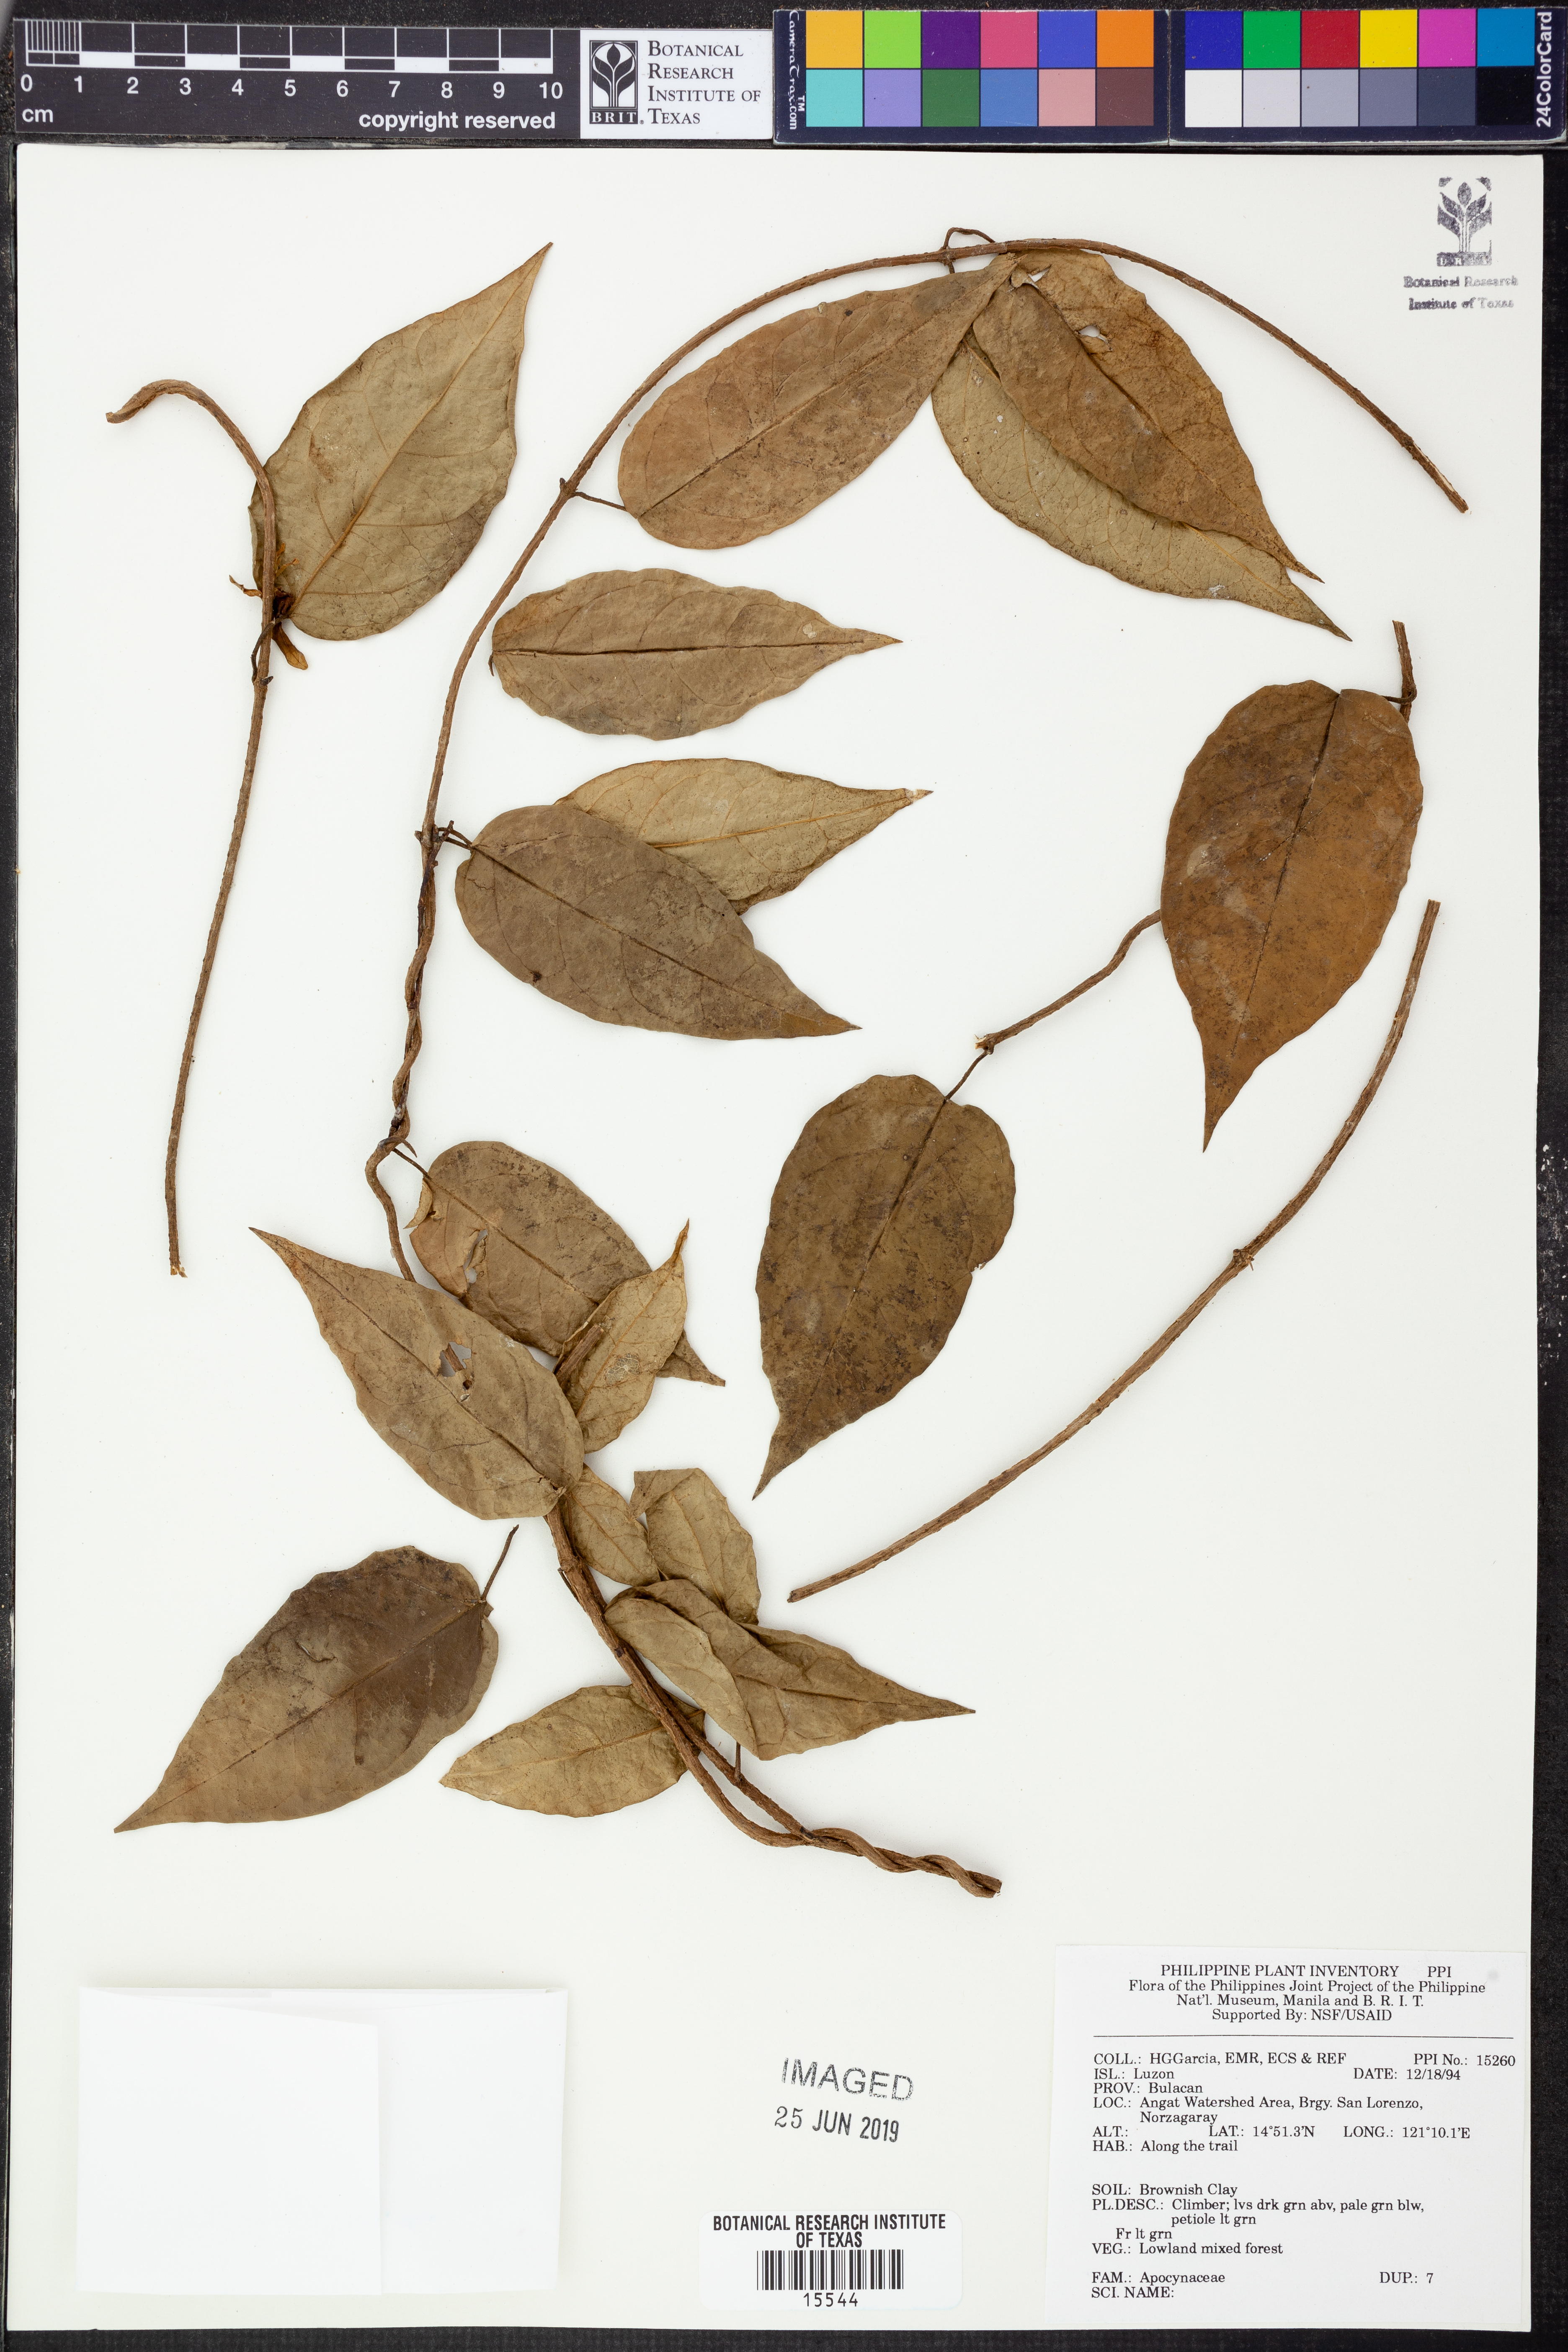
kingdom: Plantae
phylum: Tracheophyta
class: Magnoliopsida
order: Gentianales
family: Apocynaceae
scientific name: Apocynaceae
